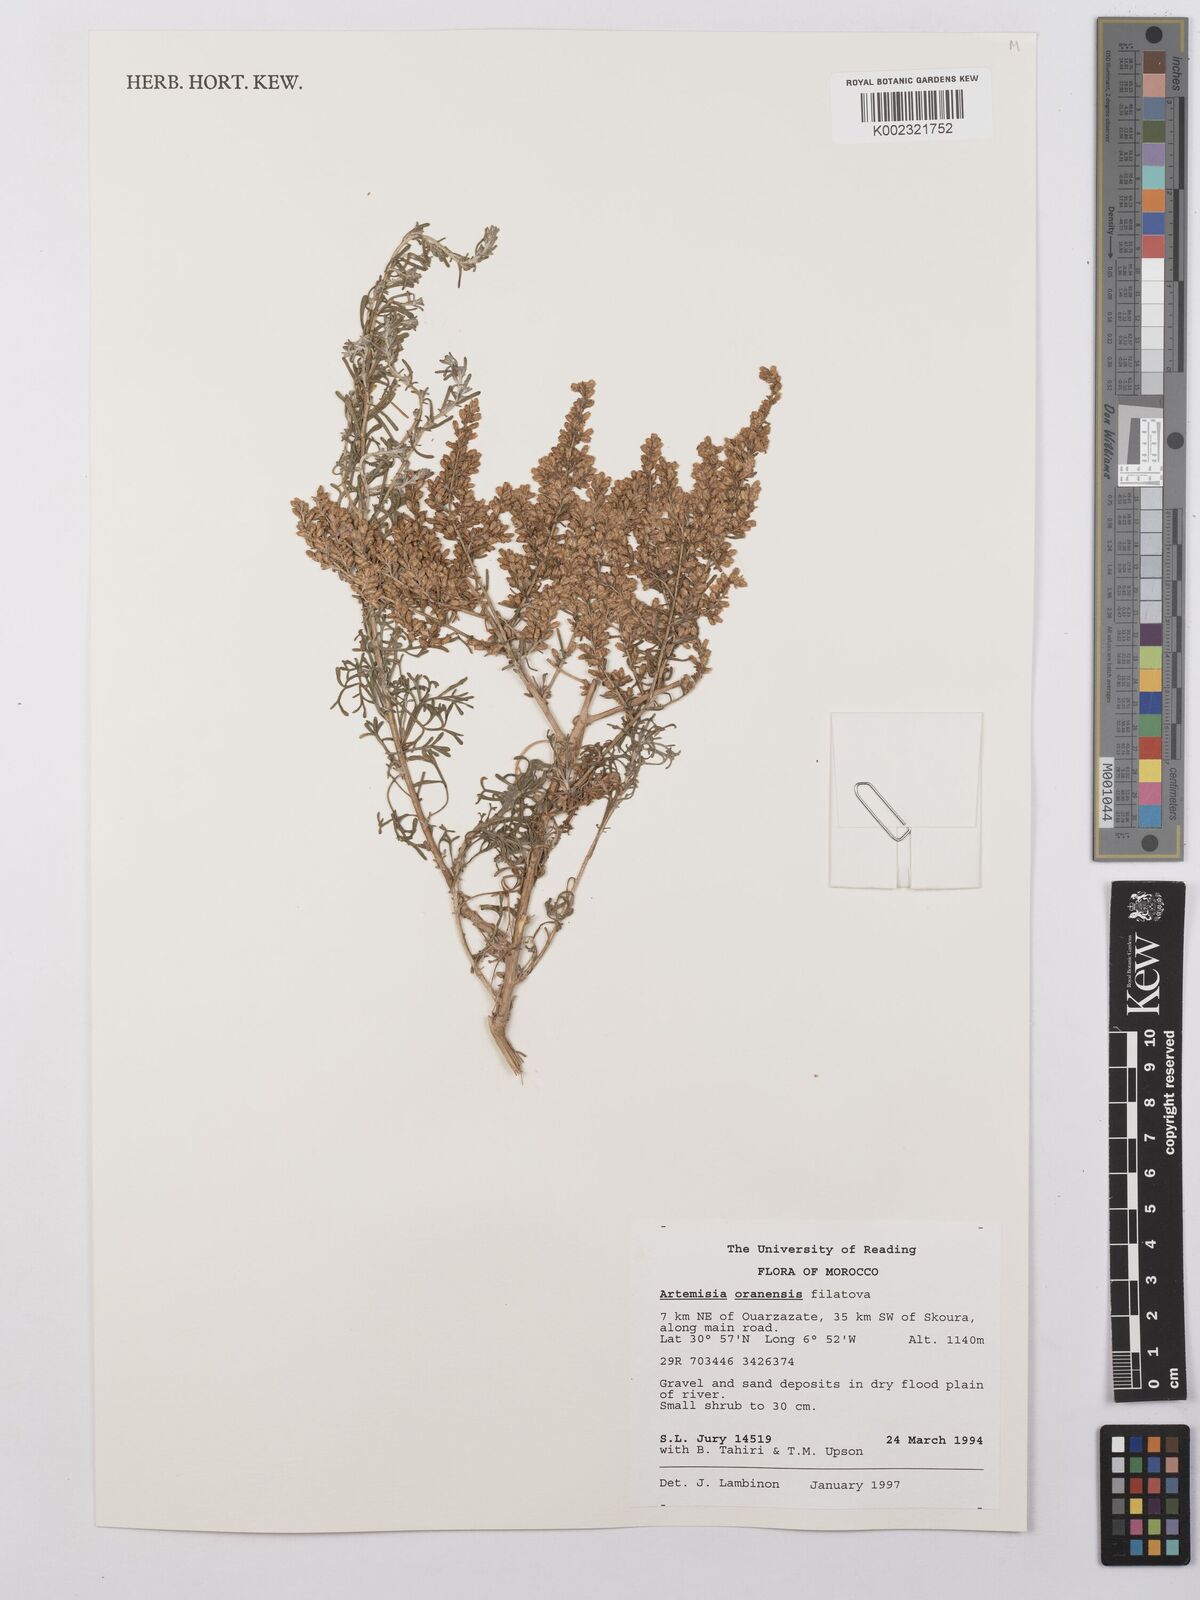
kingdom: Plantae
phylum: Tracheophyta
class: Magnoliopsida
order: Asterales
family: Asteraceae
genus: Artemisia
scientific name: Artemisia oranensis
